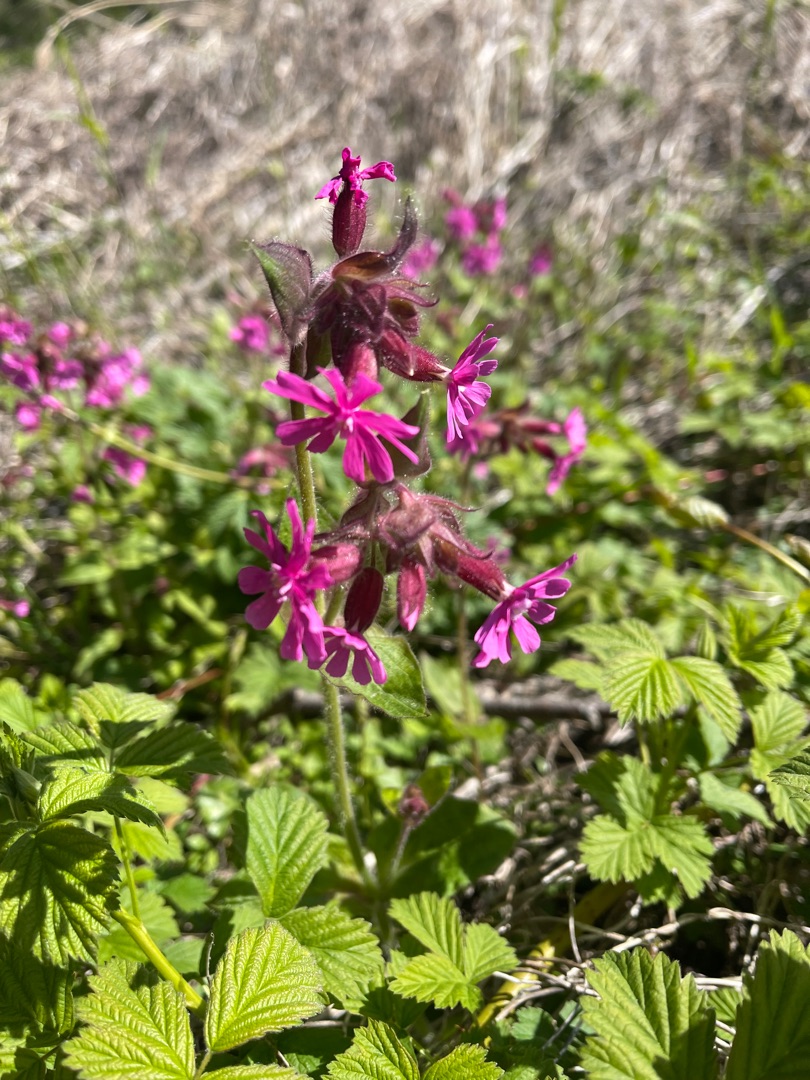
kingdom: Plantae
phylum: Tracheophyta
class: Magnoliopsida
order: Caryophyllales
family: Caryophyllaceae
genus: Silene
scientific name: Silene dioica
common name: Dagpragtstjerne
